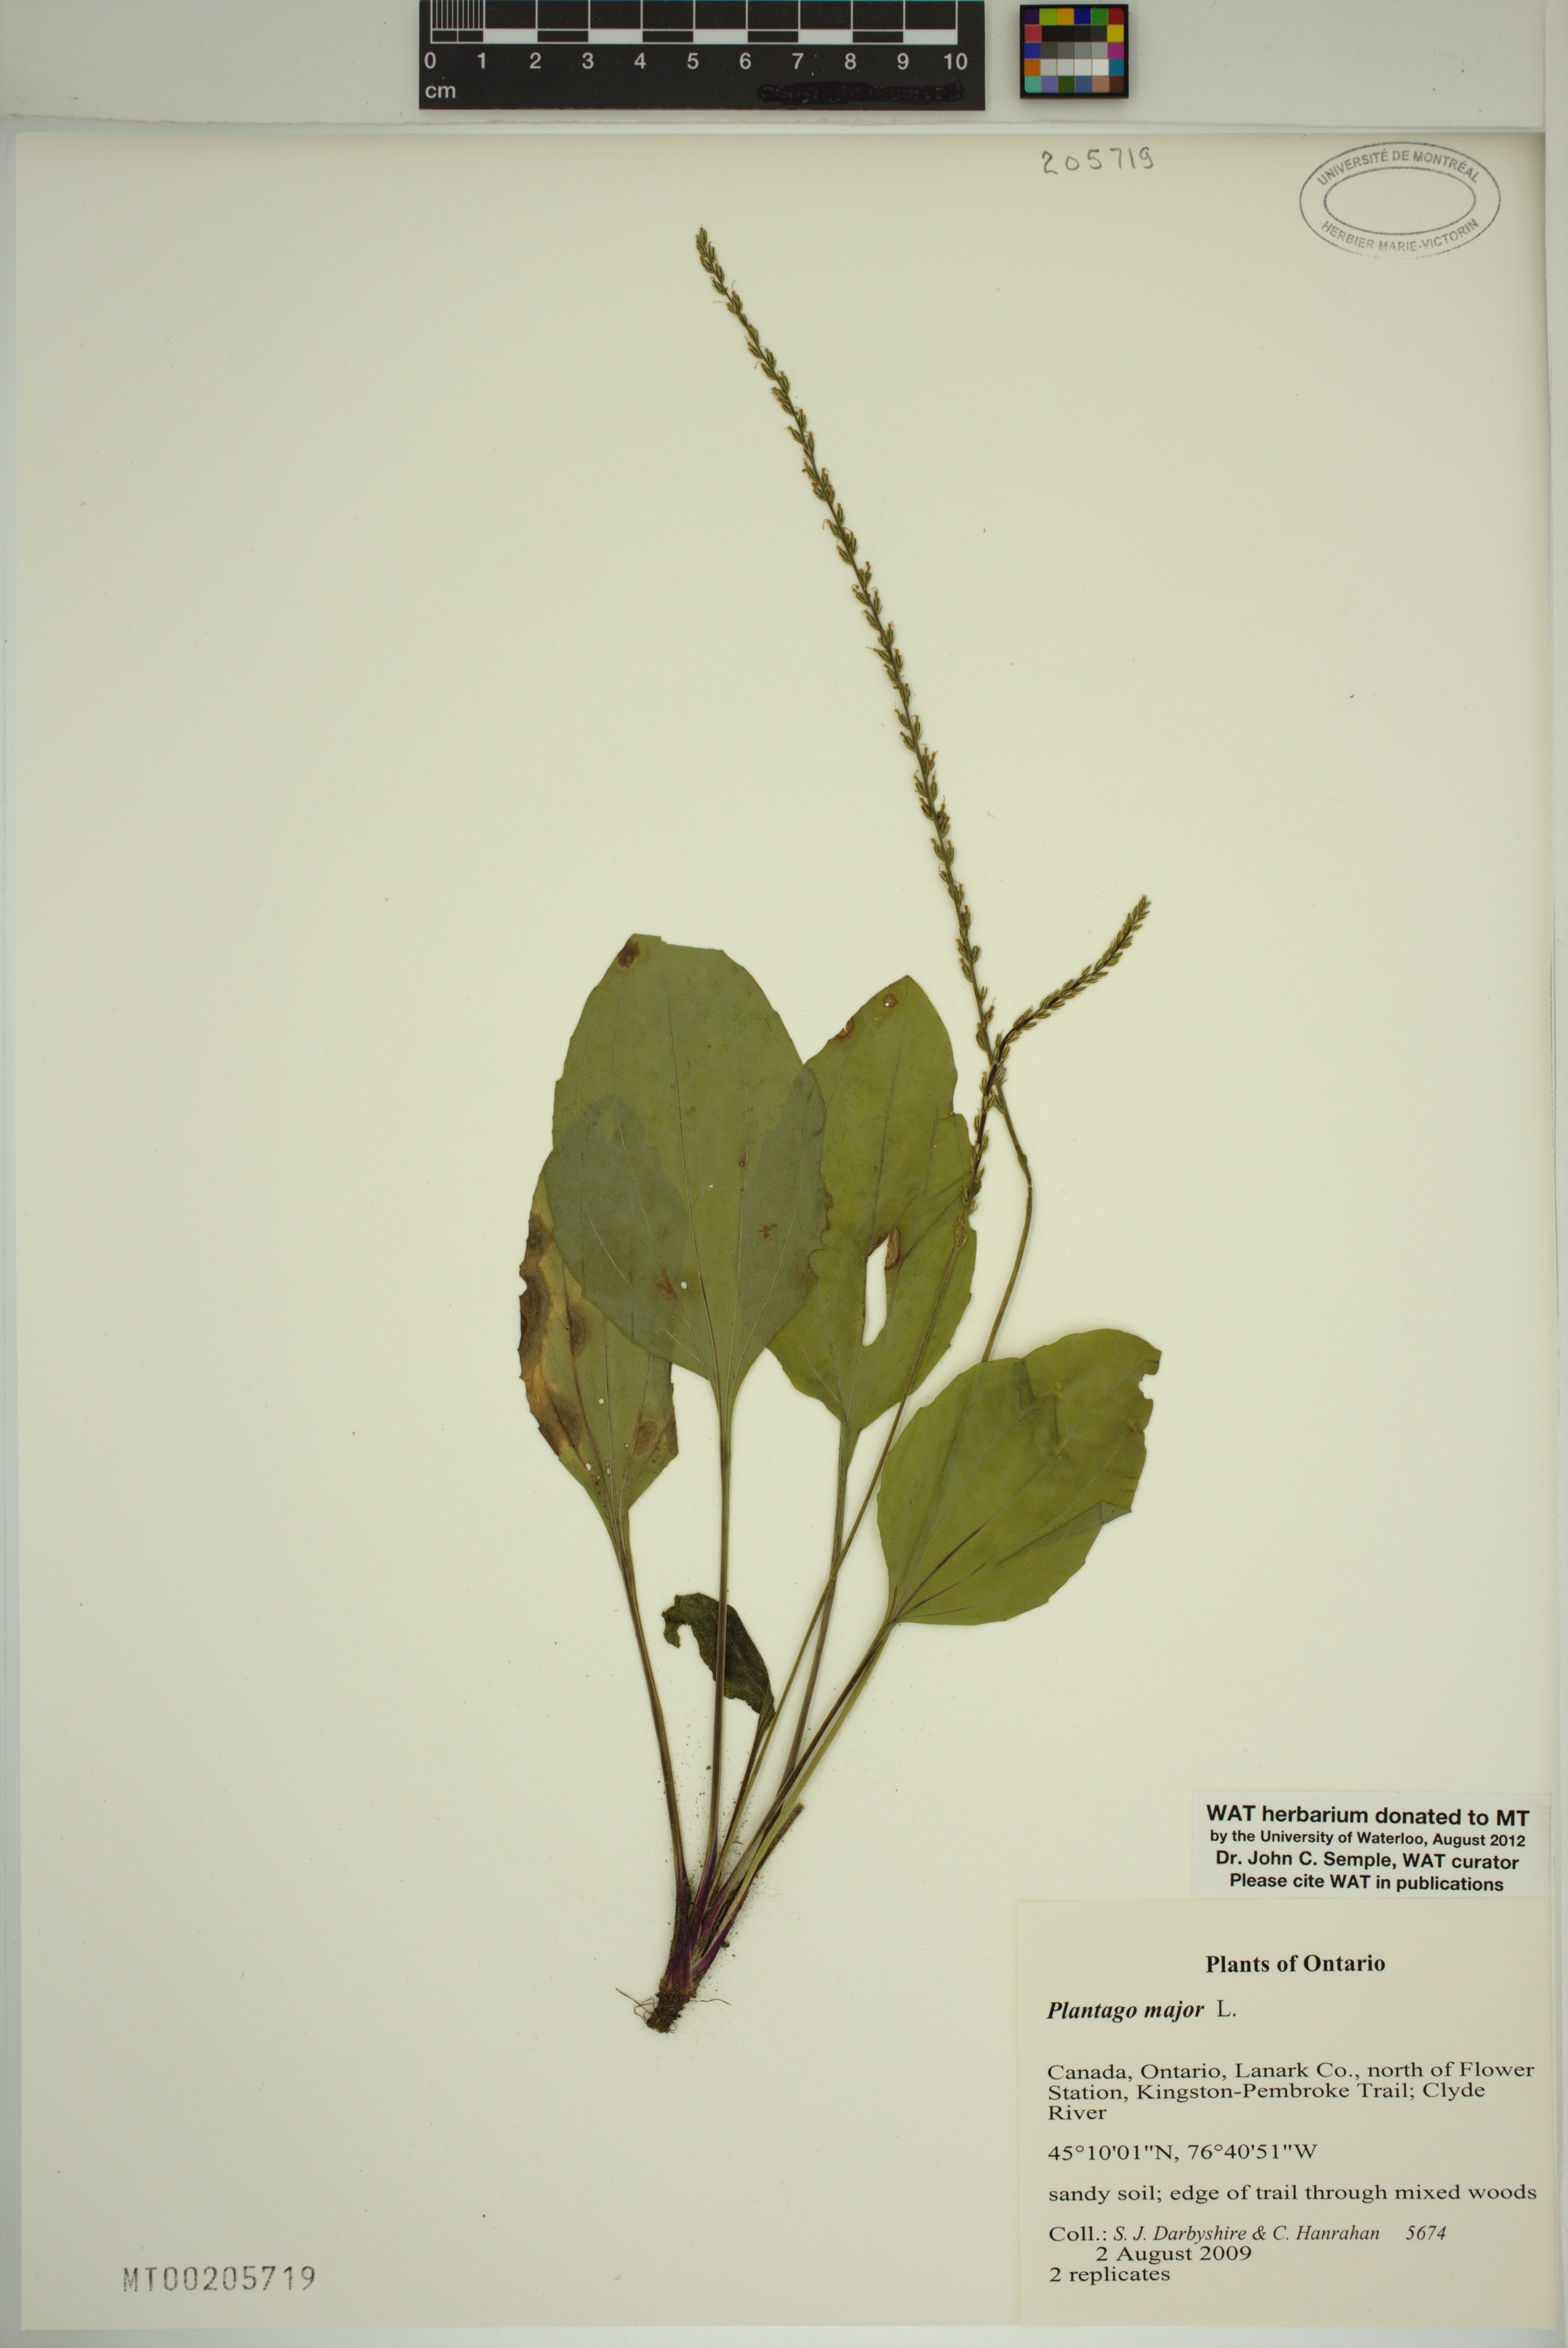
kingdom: Plantae
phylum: Tracheophyta
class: Magnoliopsida
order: Lamiales
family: Plantaginaceae
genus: Plantago
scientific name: Plantago major
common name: Common plantain
